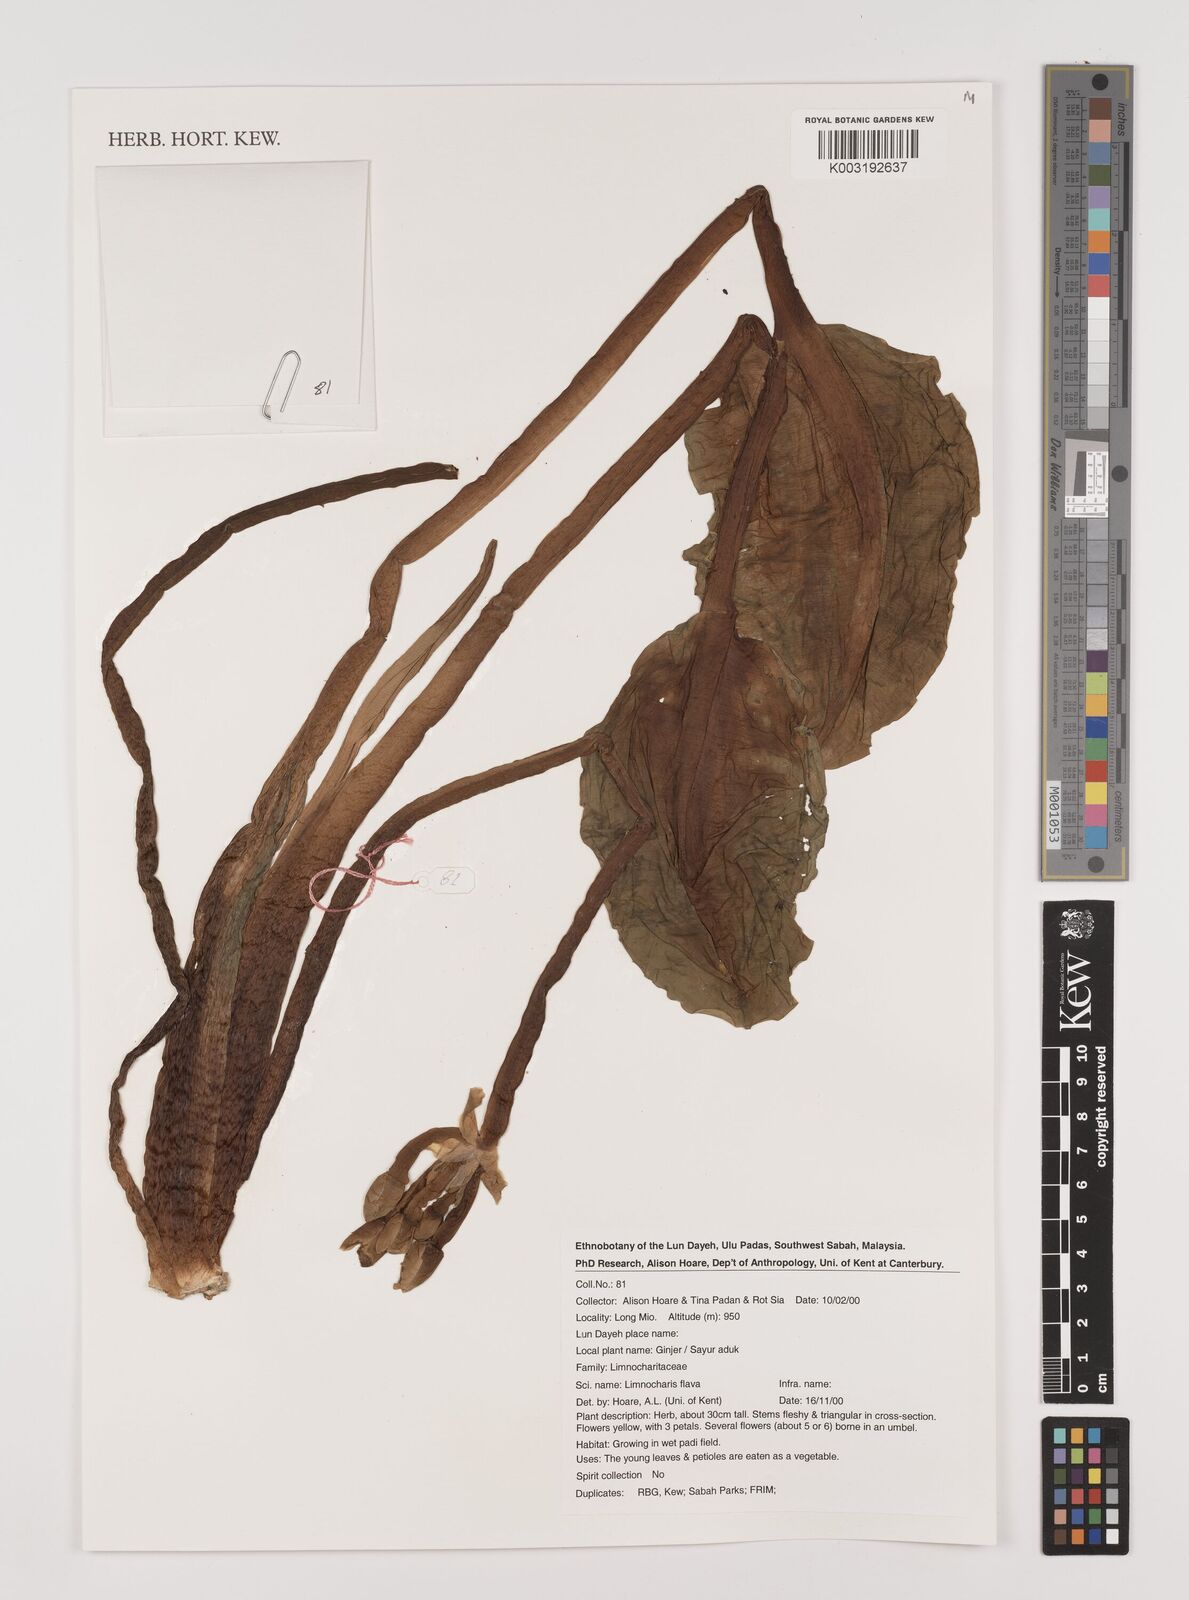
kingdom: Plantae
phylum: Tracheophyta
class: Liliopsida
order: Alismatales
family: Alismataceae
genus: Limnocharis
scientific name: Limnocharis flava
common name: Sawah-flower-rush
